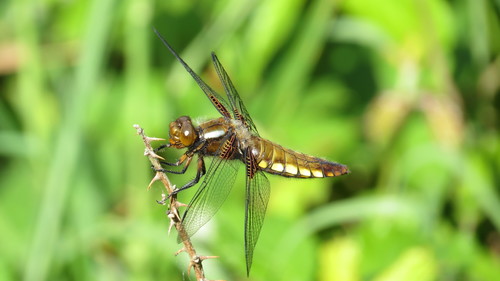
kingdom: Animalia
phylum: Arthropoda
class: Insecta
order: Odonata
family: Libellulidae
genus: Libellula
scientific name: Libellula depressa
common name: Broad-bodied chaser
